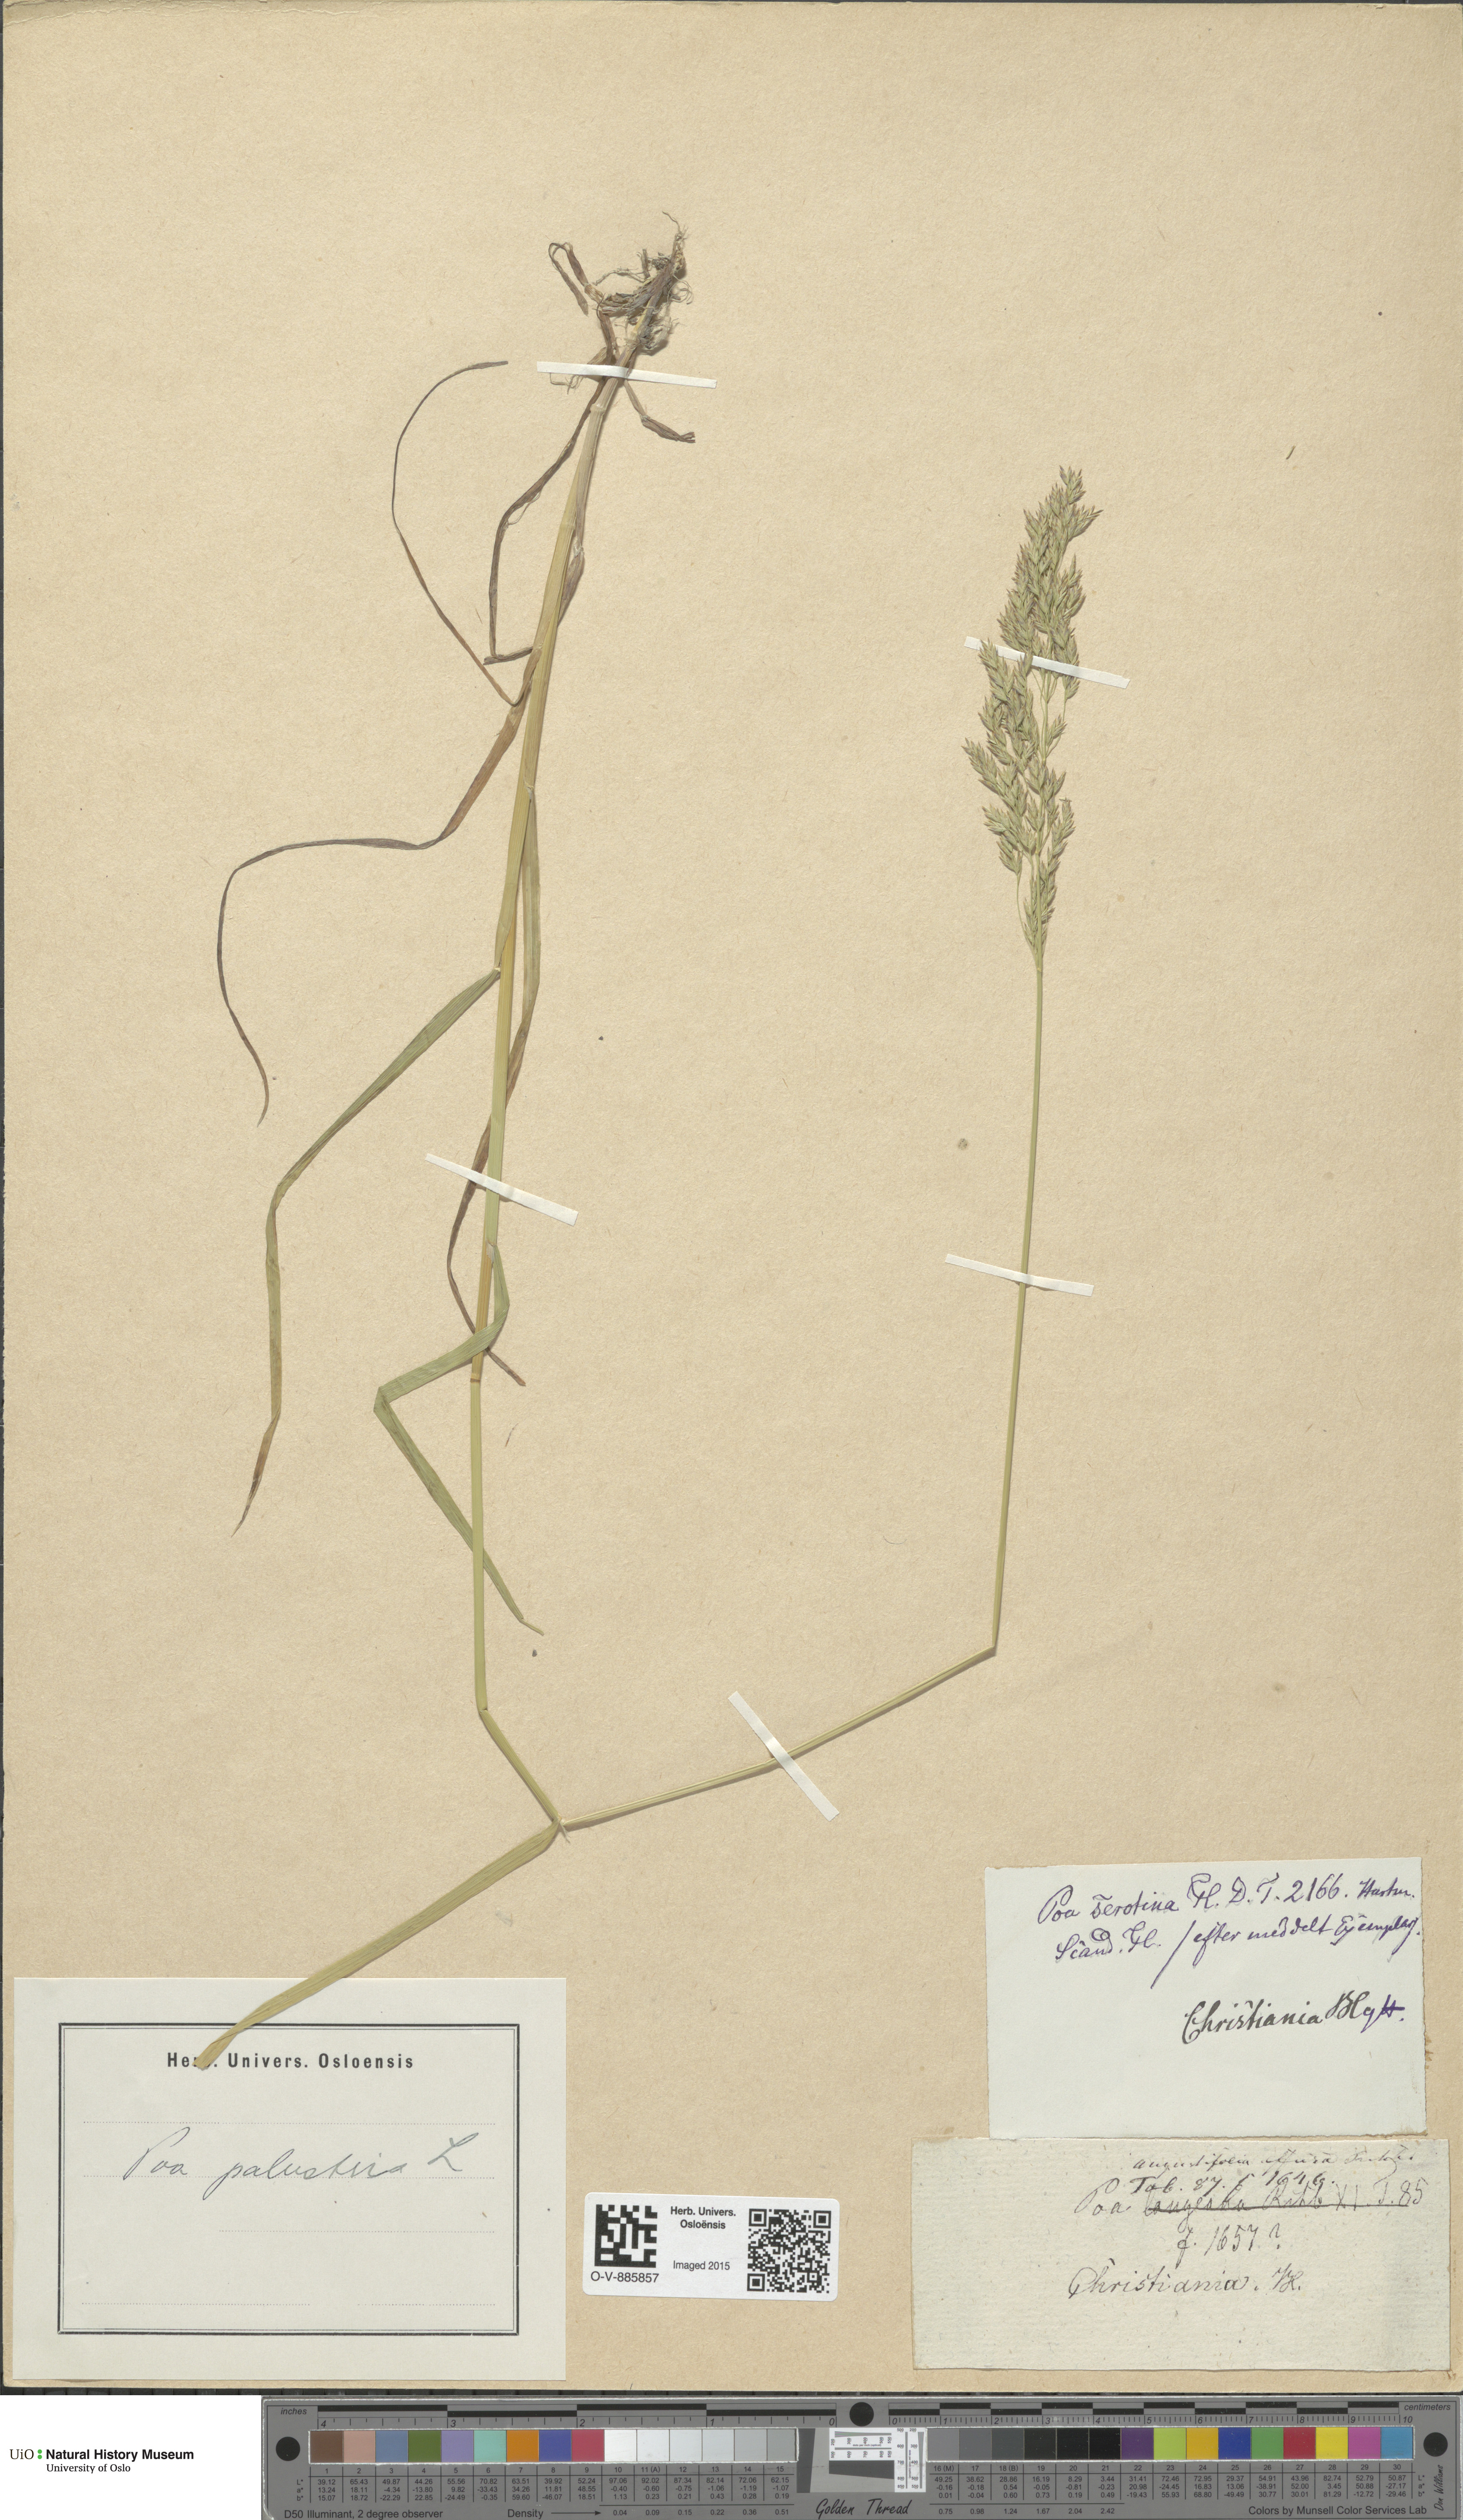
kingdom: Plantae
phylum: Tracheophyta
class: Liliopsida
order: Poales
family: Poaceae
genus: Poa
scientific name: Poa palustris
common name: Swamp meadow-grass
